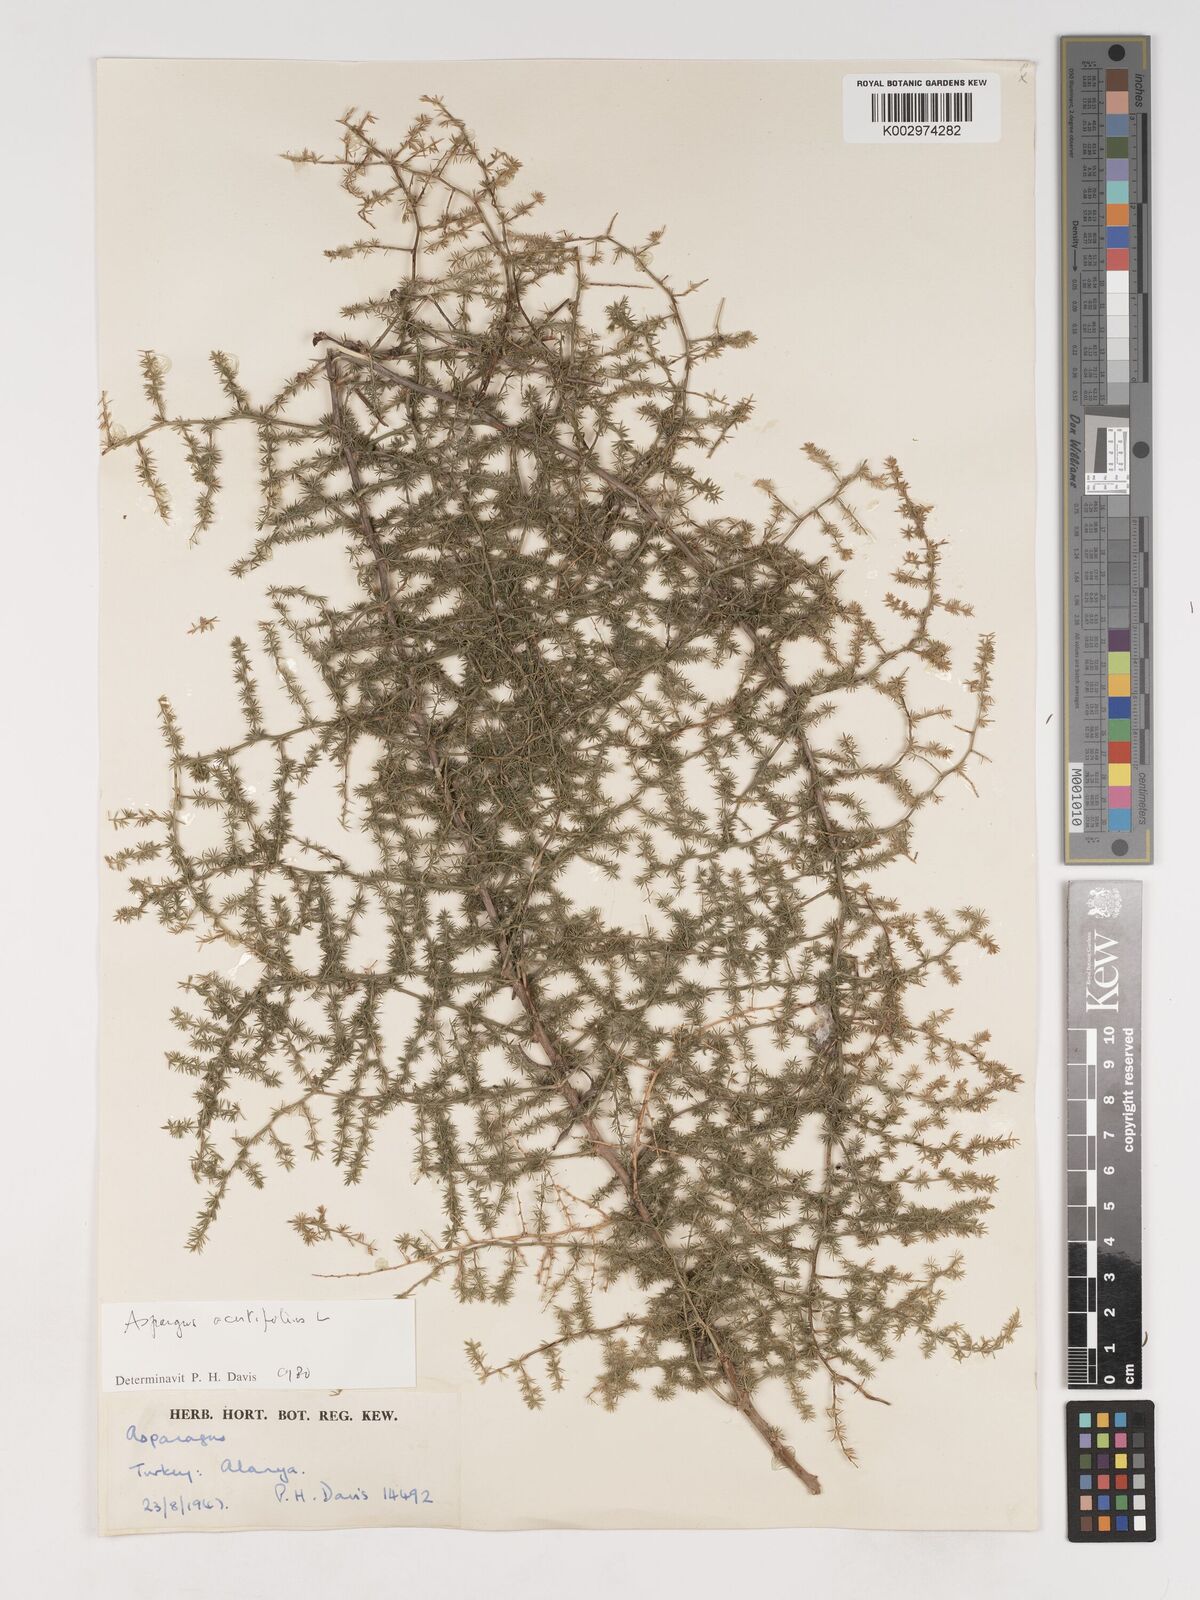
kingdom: Plantae
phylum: Tracheophyta
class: Liliopsida
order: Asparagales
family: Asparagaceae
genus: Asparagus
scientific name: Asparagus acutifolius
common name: Wild asparagus
